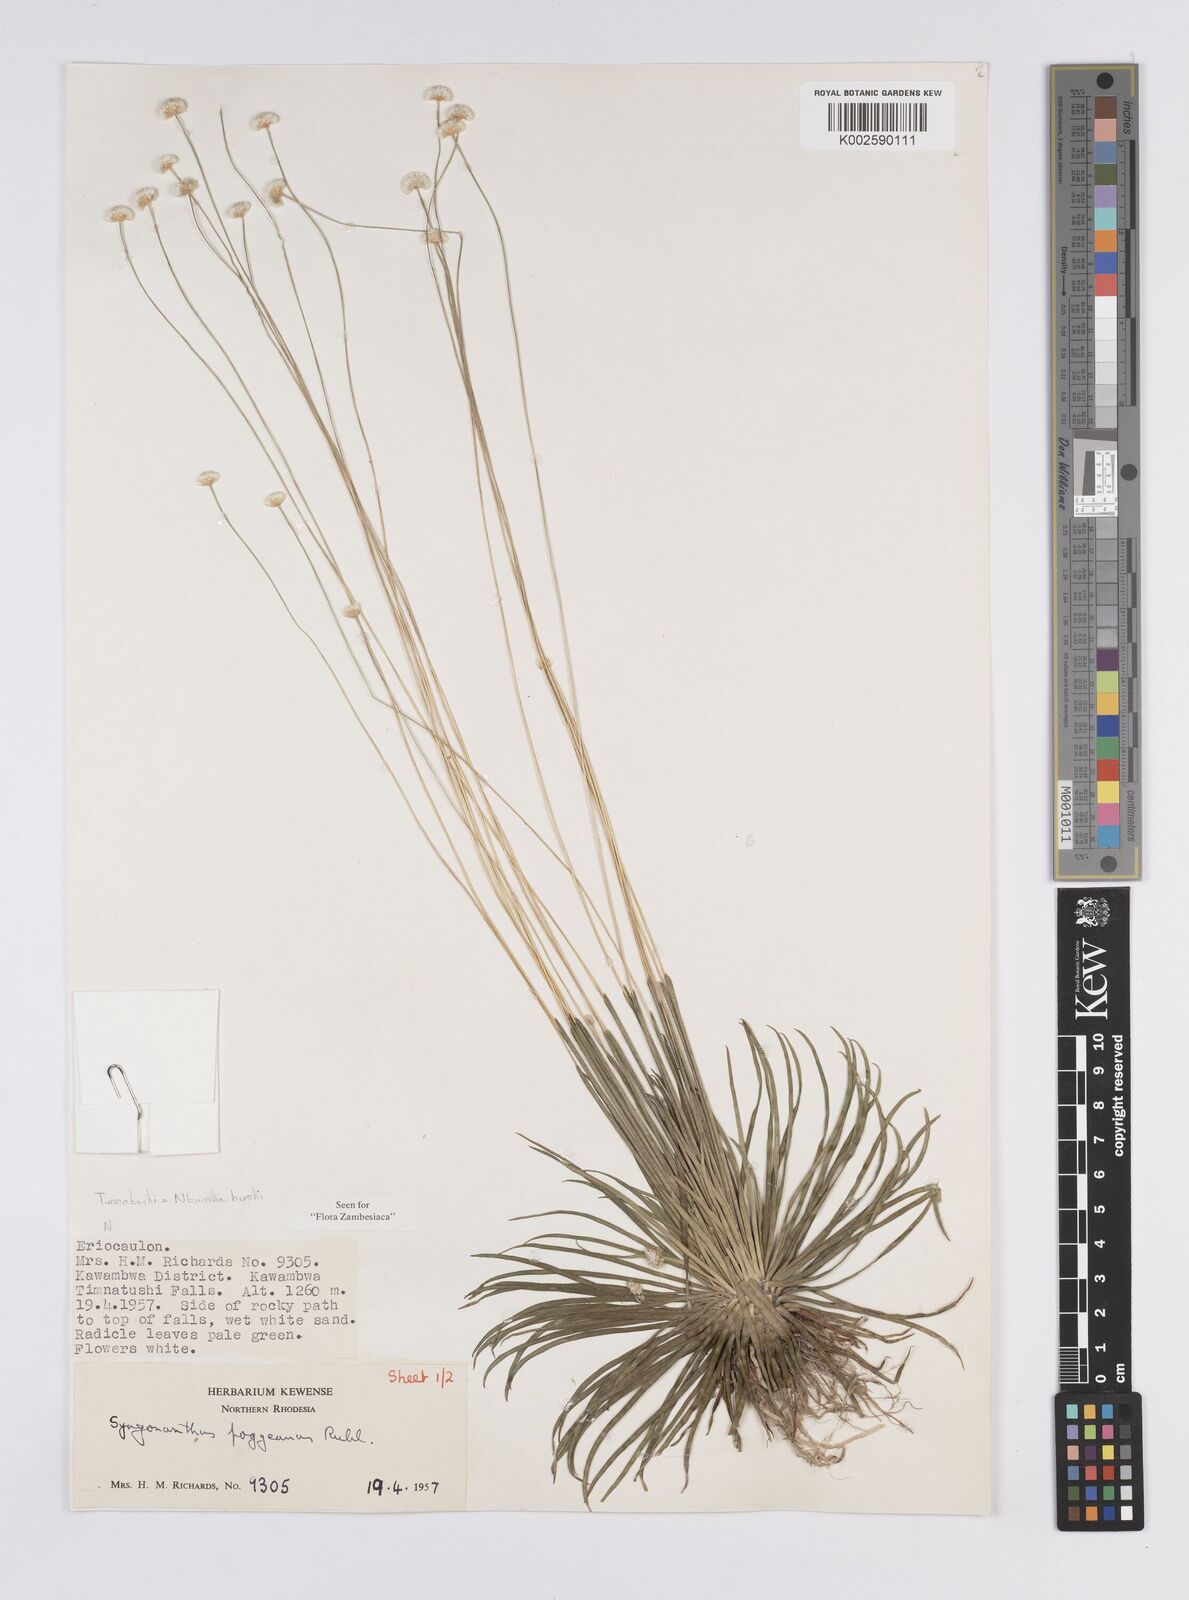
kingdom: Plantae
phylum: Tracheophyta
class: Liliopsida
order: Poales
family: Eriocaulaceae
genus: Syngonanthus
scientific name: Syngonanthus poggeanus
